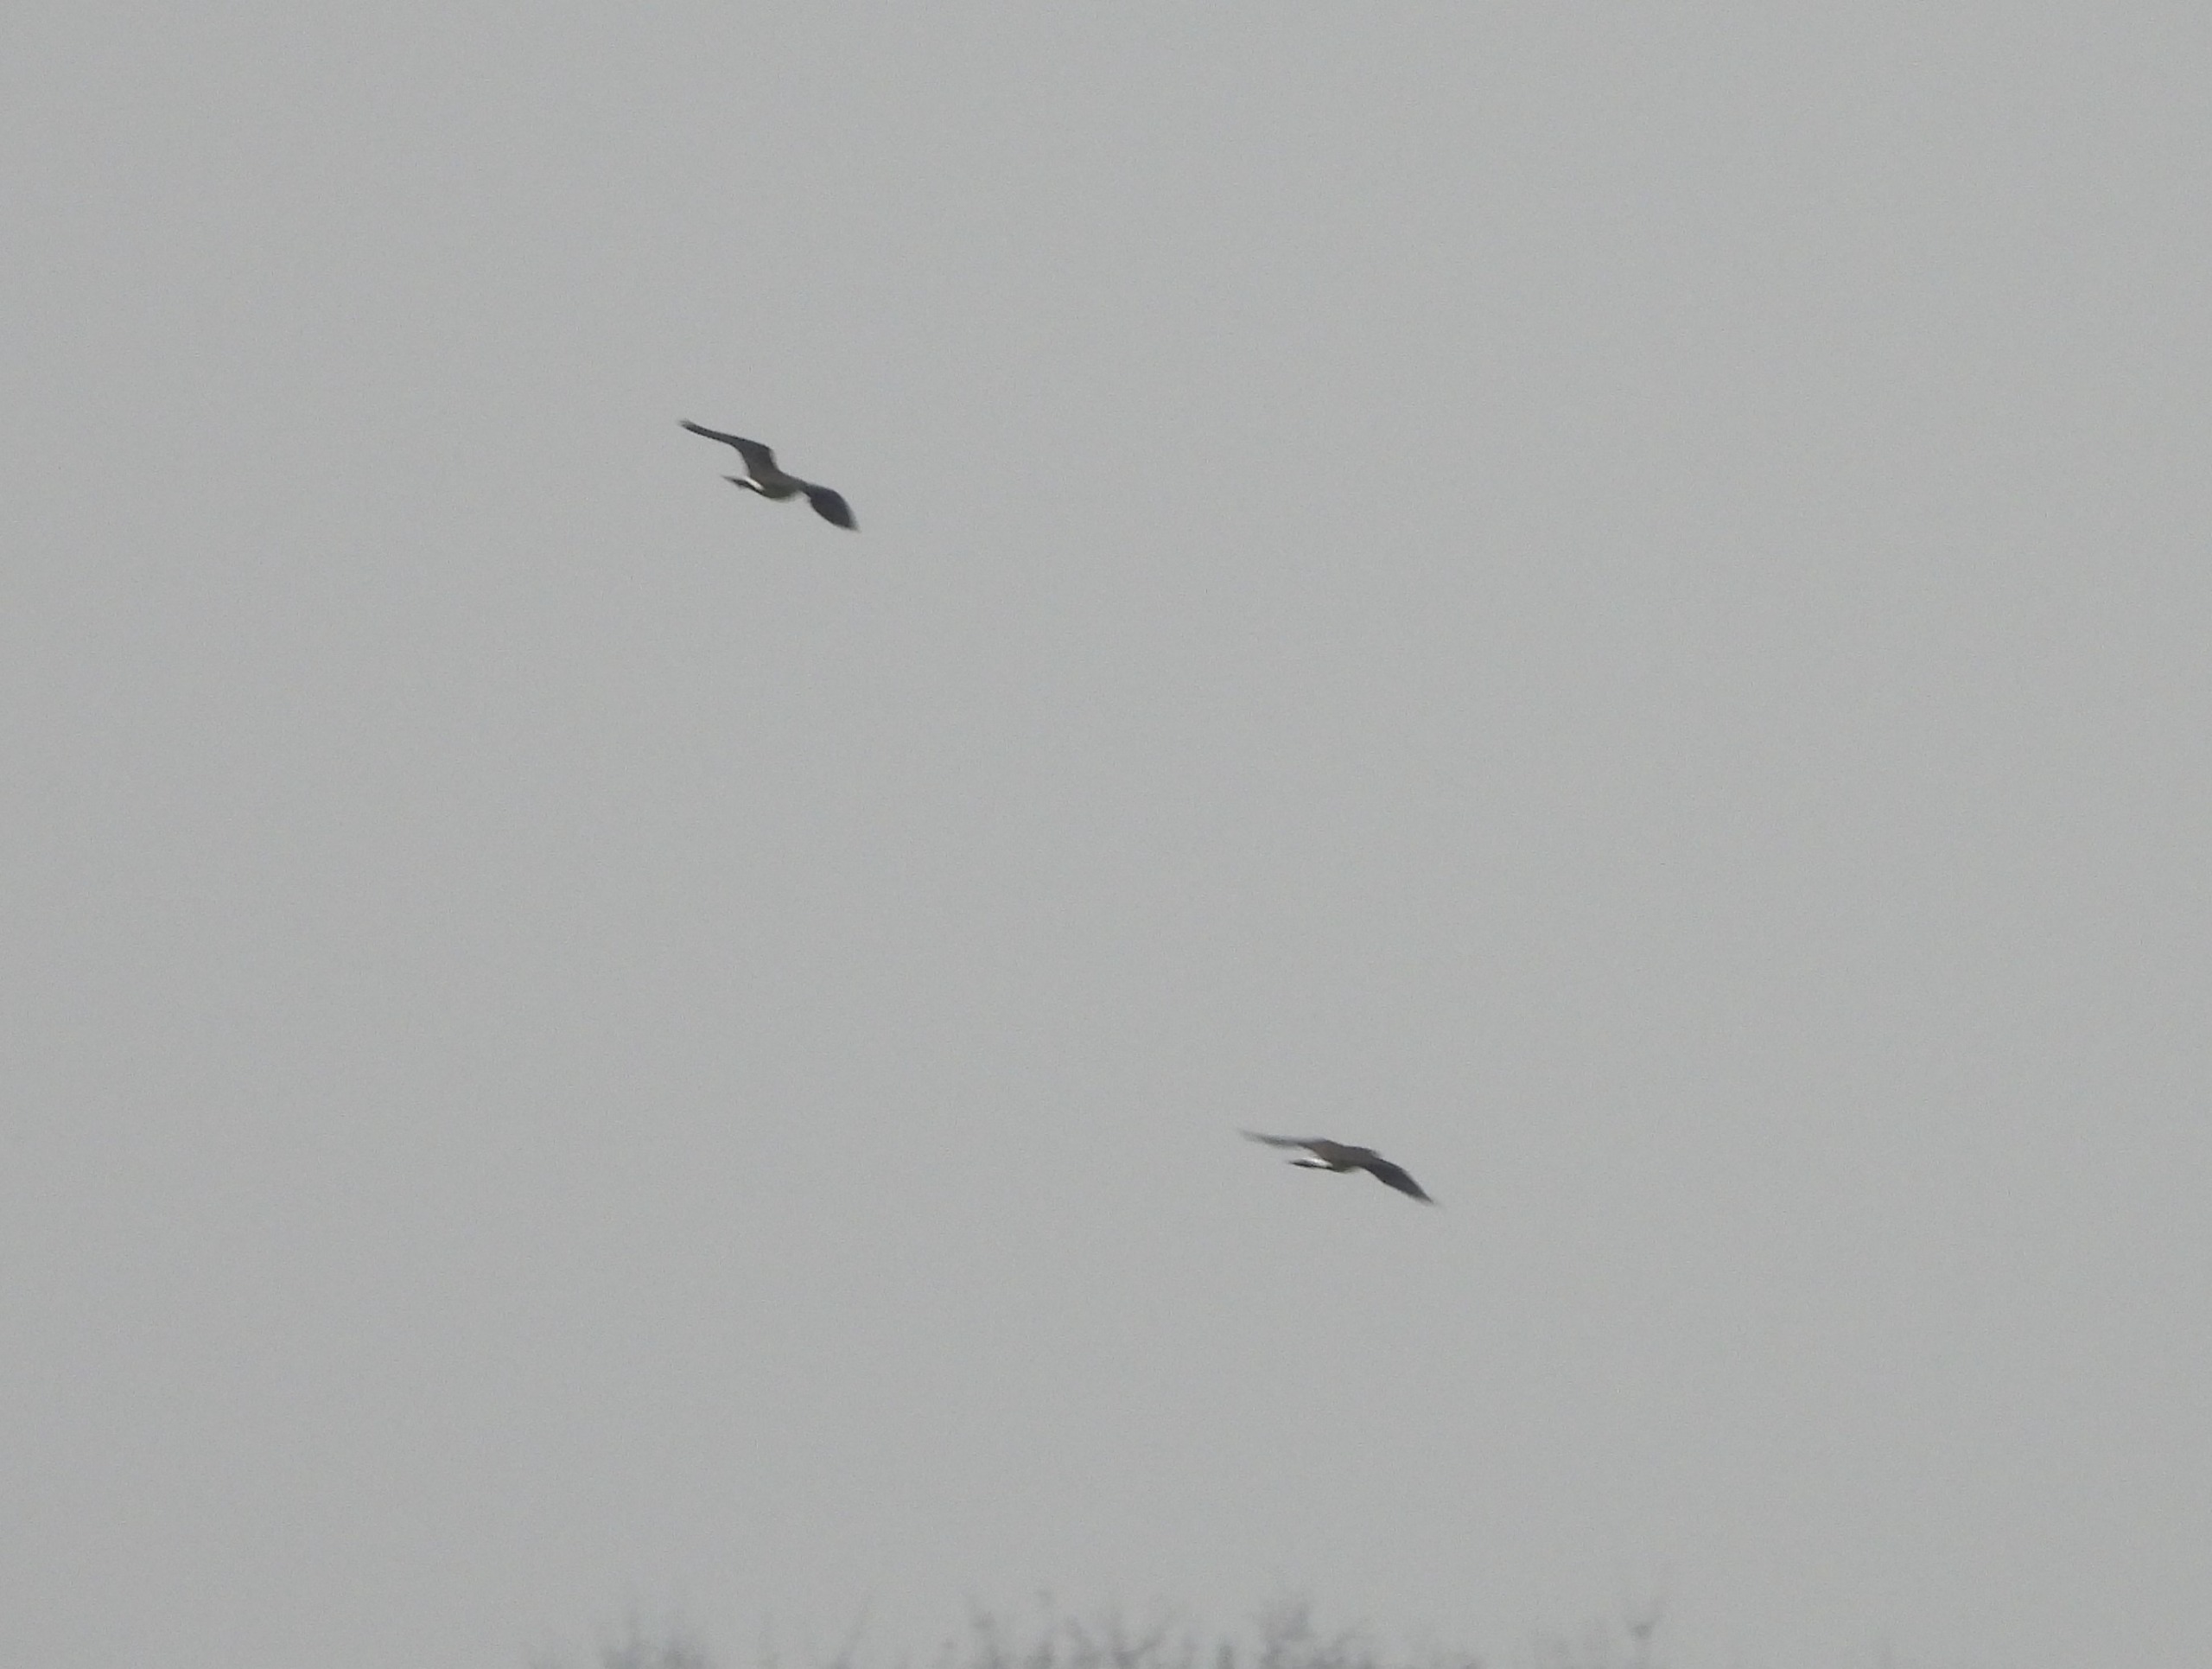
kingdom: Animalia
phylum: Chordata
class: Aves
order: Charadriiformes
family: Charadriidae
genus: Vanellus
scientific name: Vanellus vanellus
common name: Vibe
